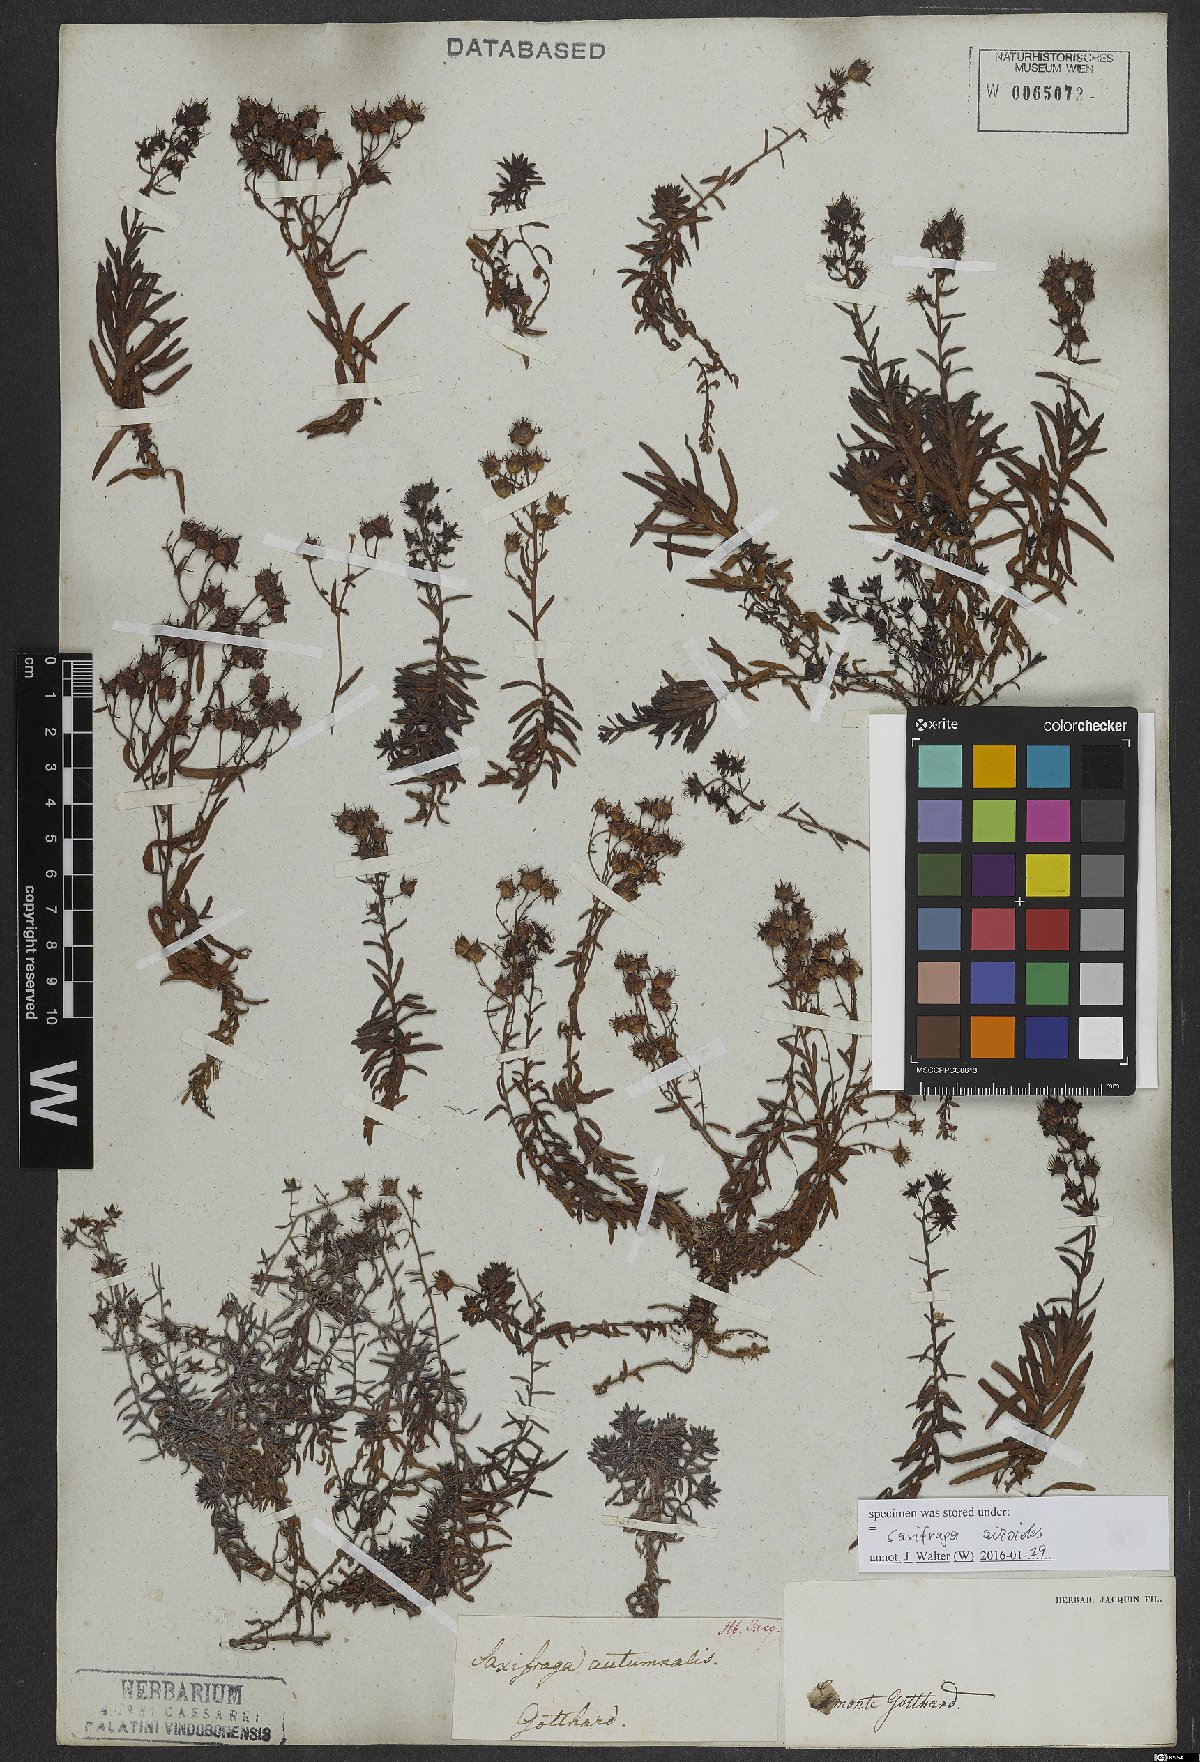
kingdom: Plantae
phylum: Tracheophyta
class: Magnoliopsida
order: Saxifragales
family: Saxifragaceae
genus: Saxifraga
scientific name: Saxifraga aizoides
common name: Yellow mountain saxifrage
